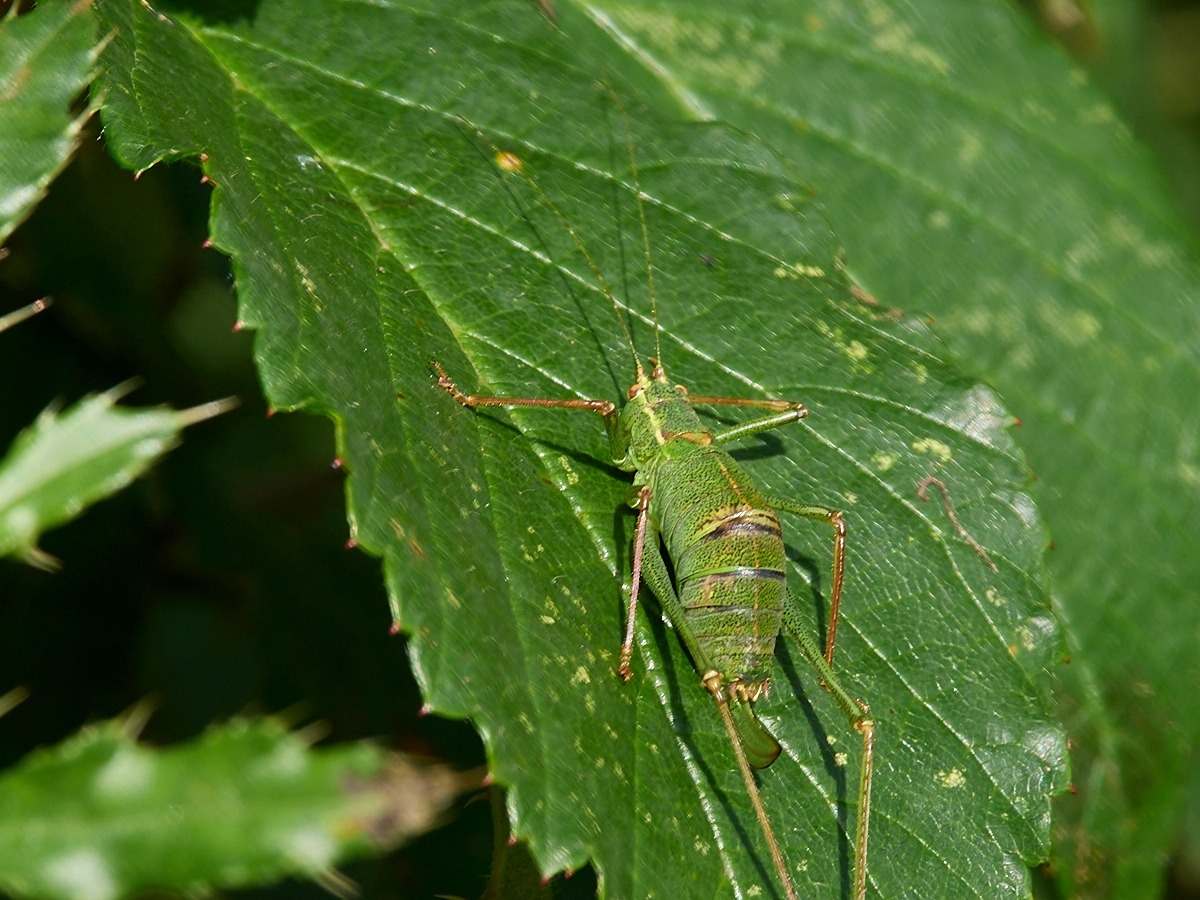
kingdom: Animalia
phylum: Arthropoda
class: Insecta
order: Orthoptera
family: Tettigoniidae
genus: Leptophyes
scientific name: Leptophyes punctatissima
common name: Krumknivgræshoppe
